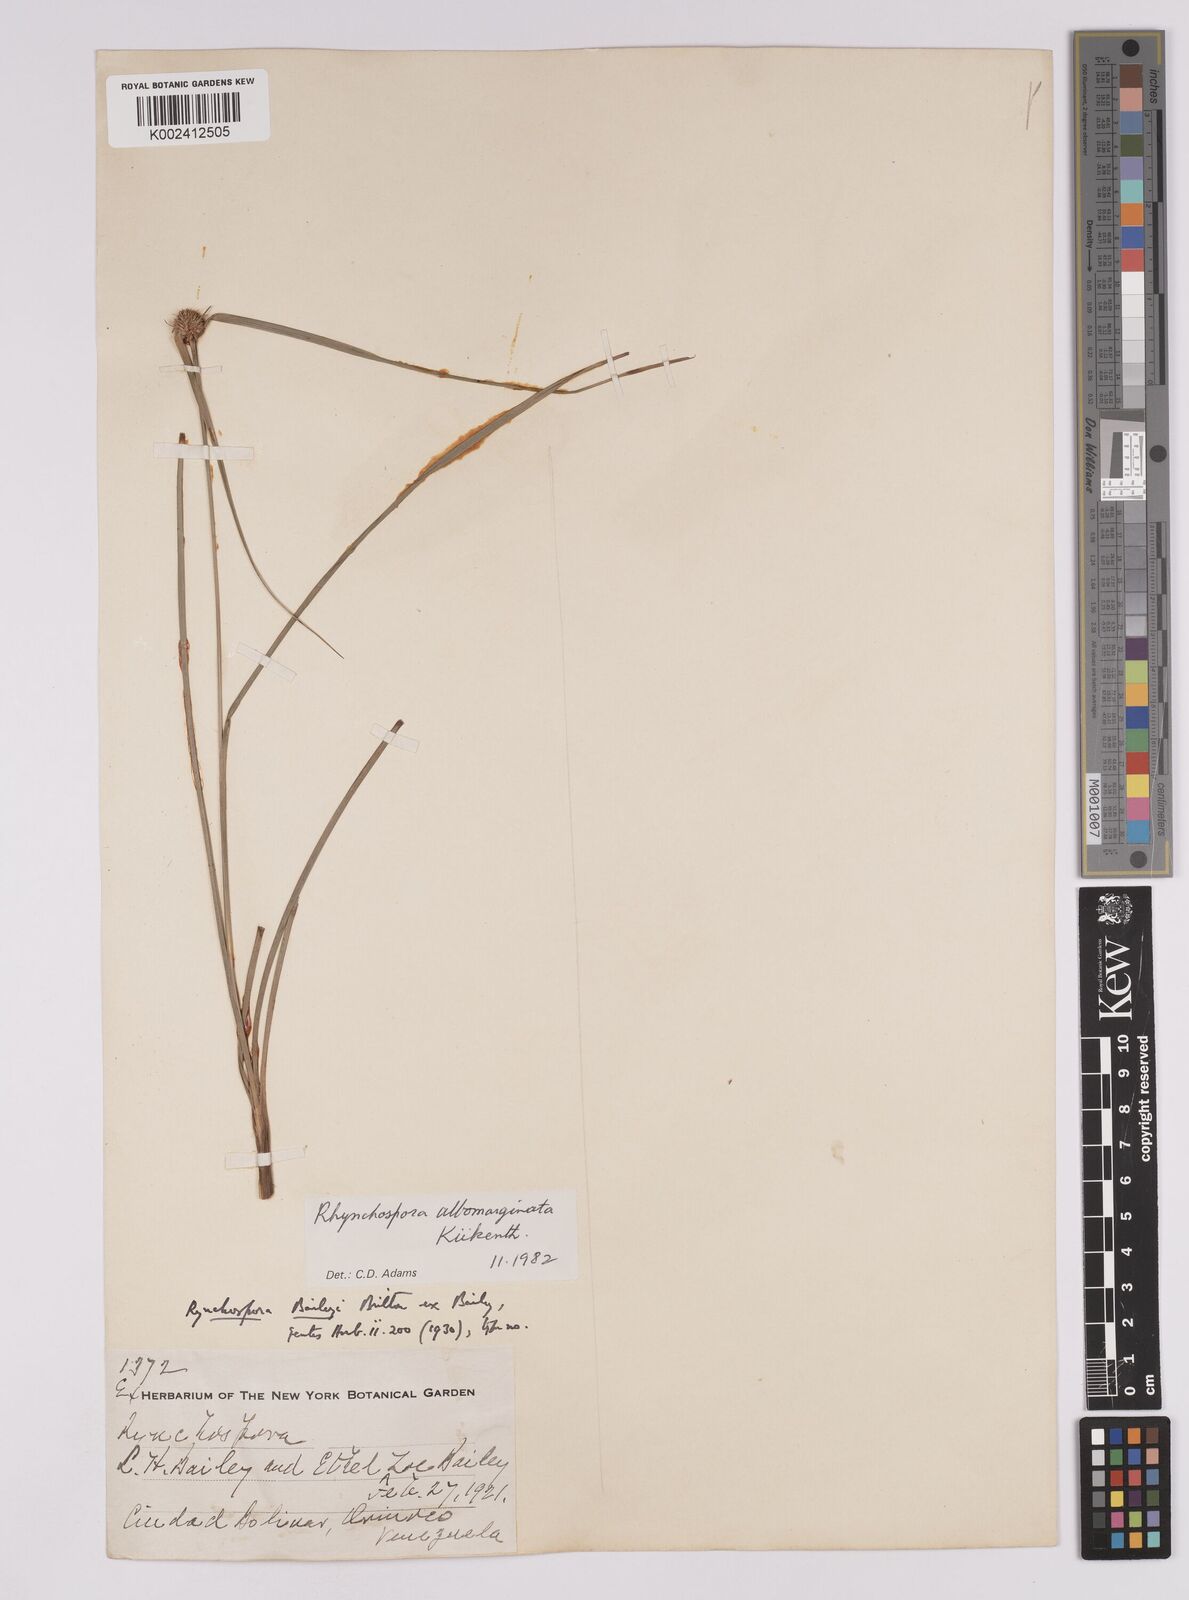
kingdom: Plantae
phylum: Tracheophyta
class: Liliopsida
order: Poales
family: Cyperaceae
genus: Rhynchospora
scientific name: Rhynchospora albomarginata
